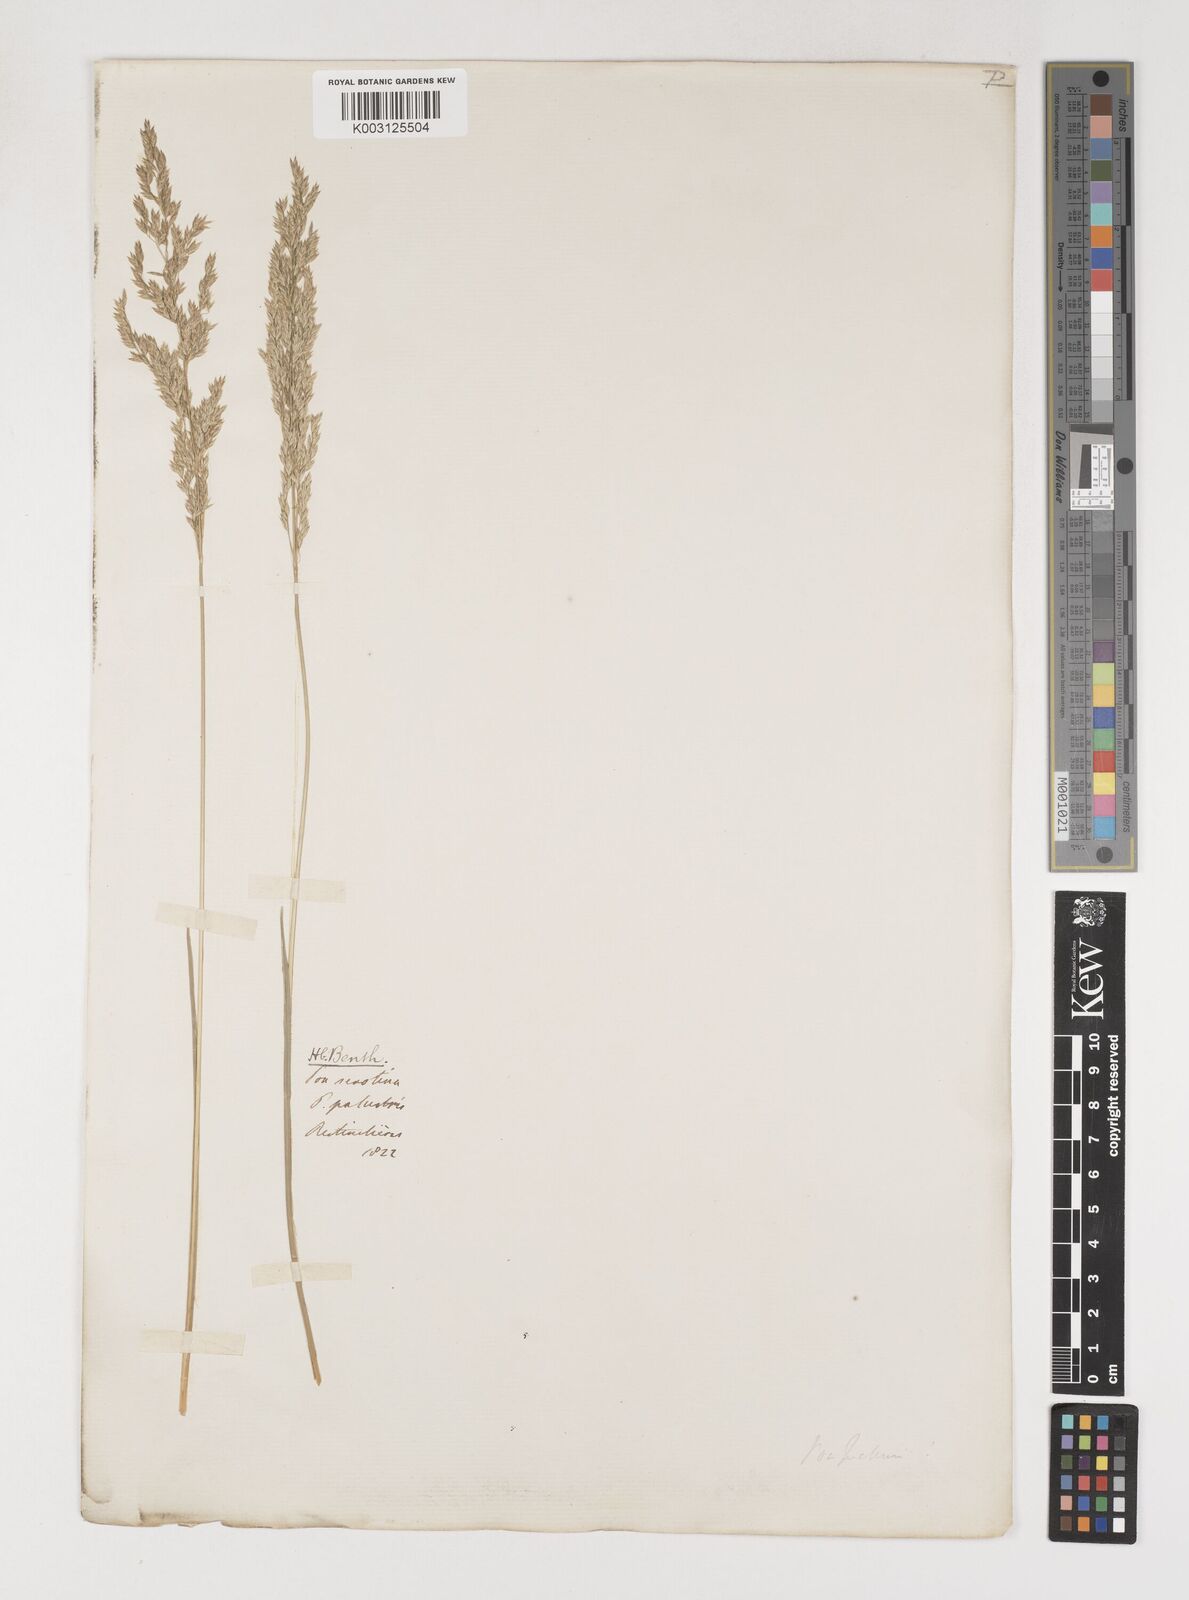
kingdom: Plantae
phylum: Tracheophyta
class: Liliopsida
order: Poales
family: Poaceae
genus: Poa
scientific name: Poa angustifolia
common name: Narrow-leaved meadow-grass
